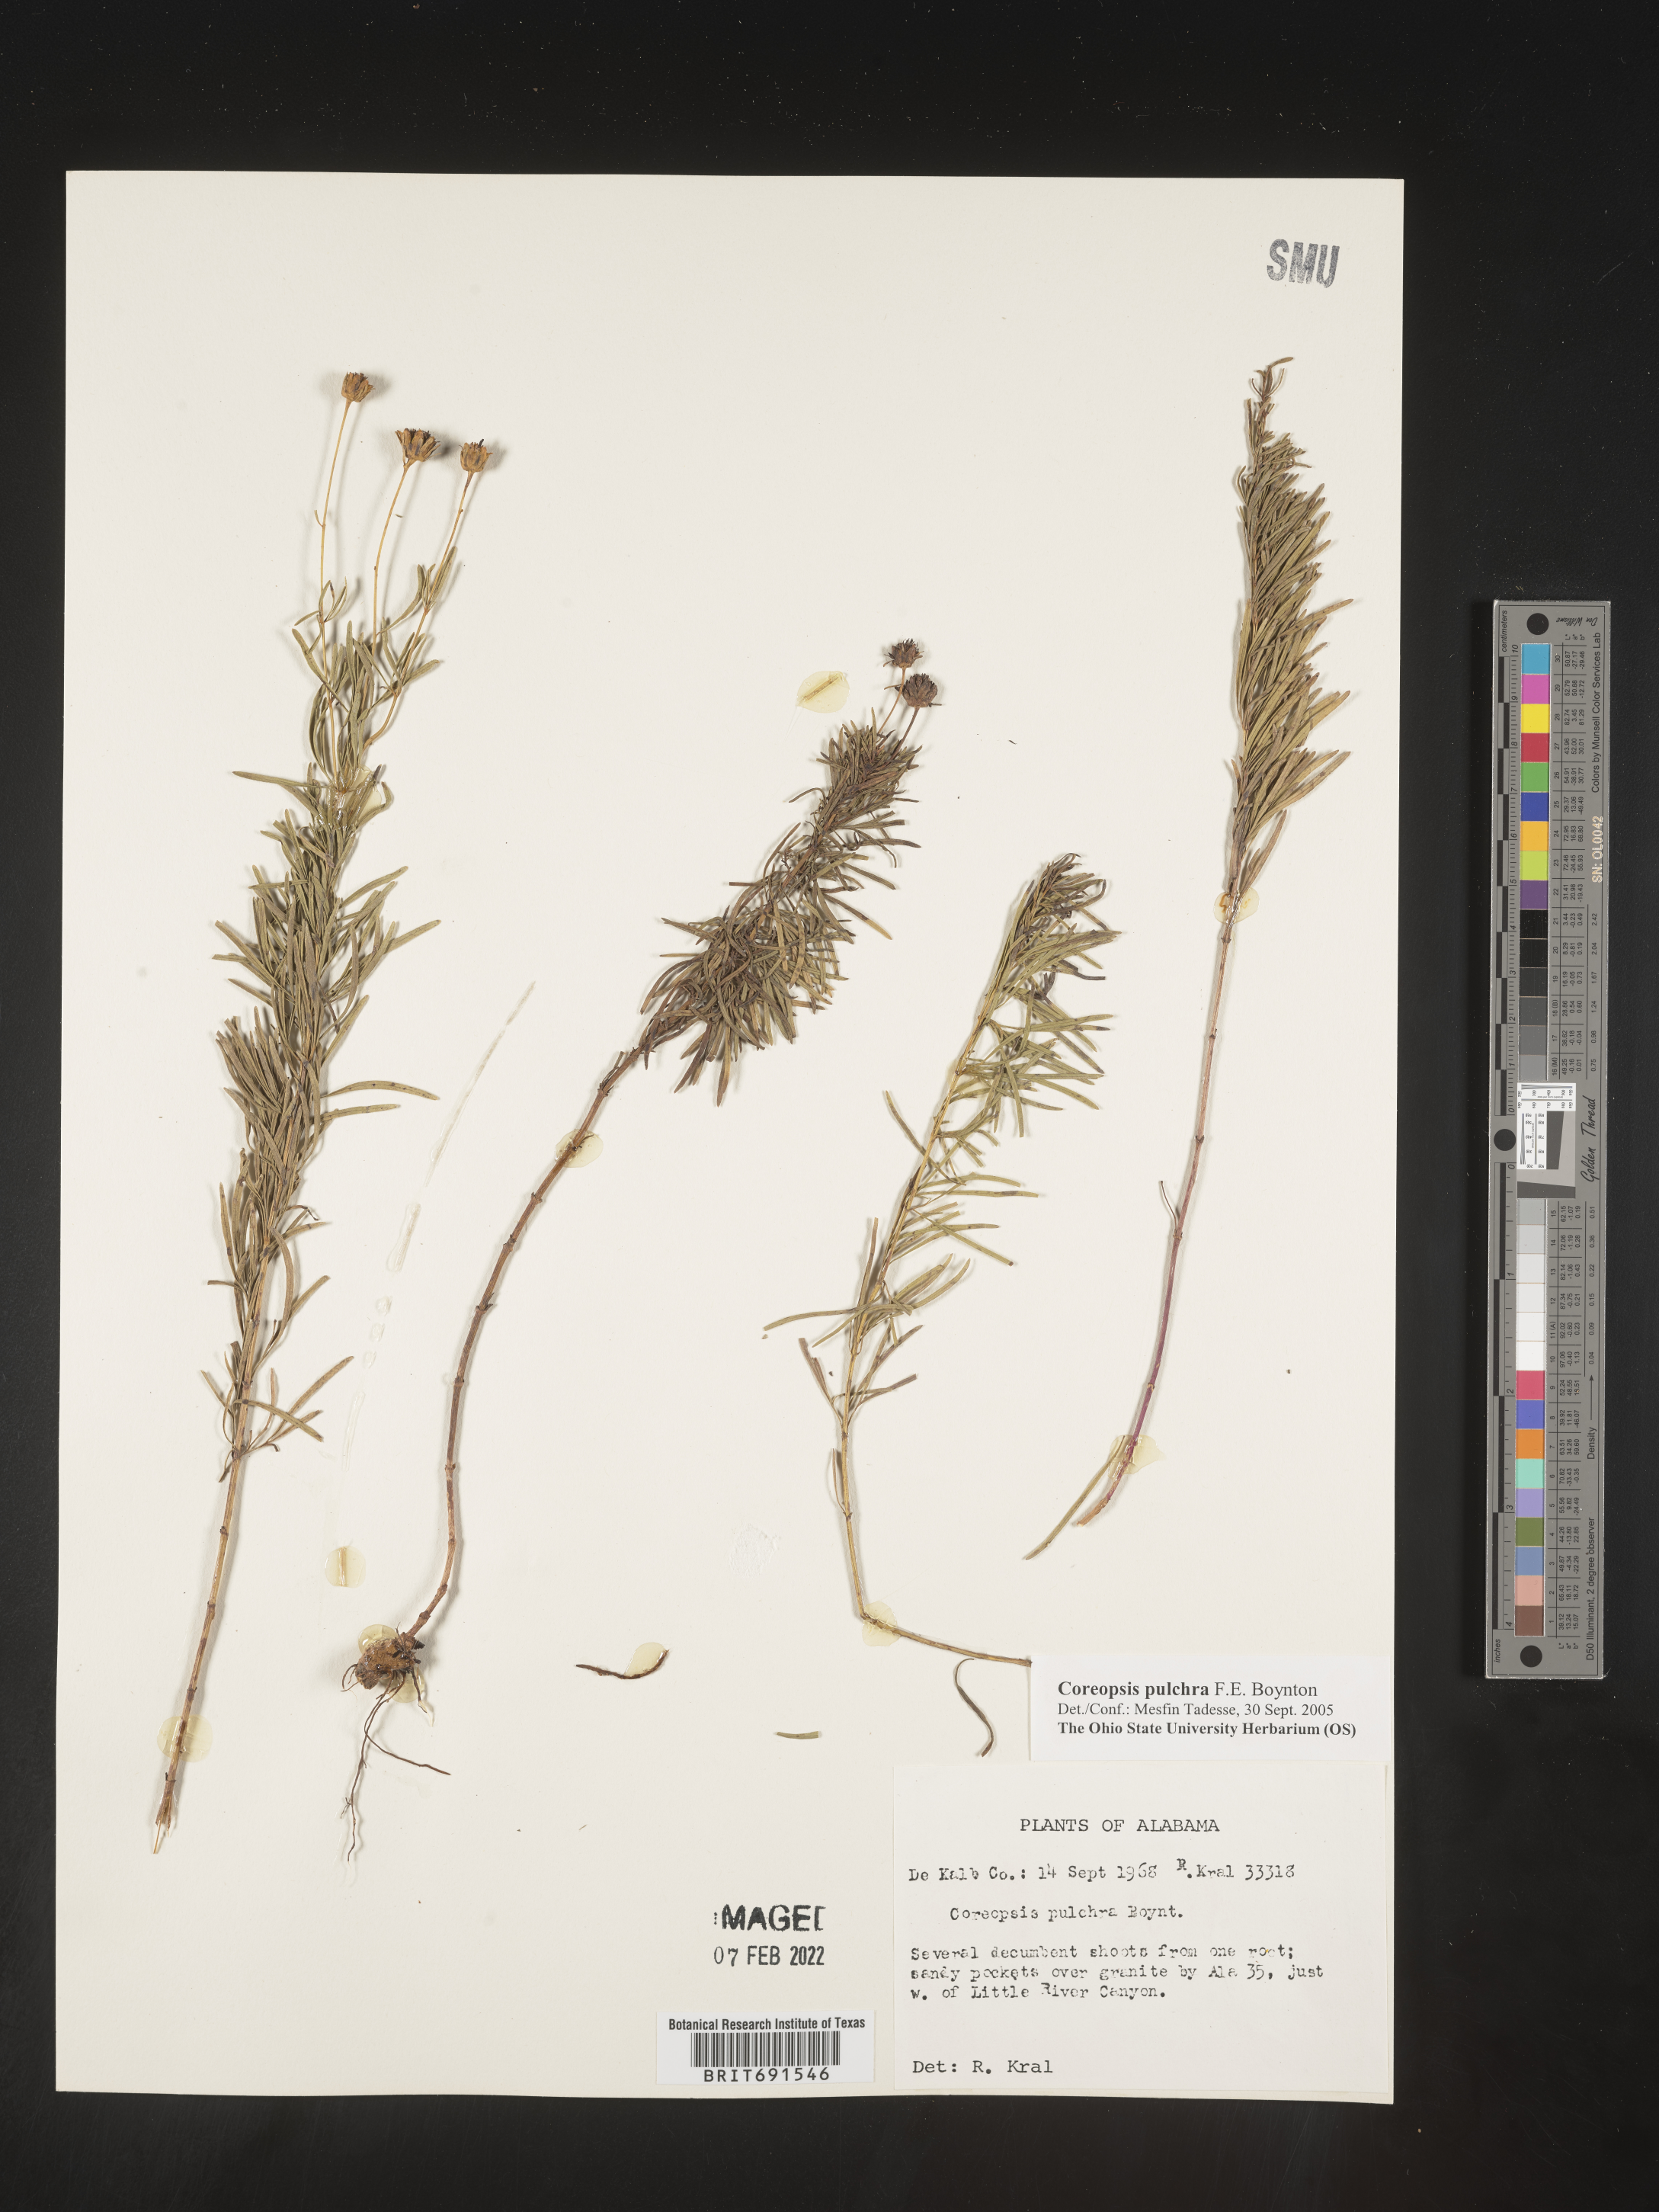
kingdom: Plantae
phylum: Tracheophyta
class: Magnoliopsida
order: Asterales
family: Asteraceae
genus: Coreopsis
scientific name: Coreopsis pulchra
